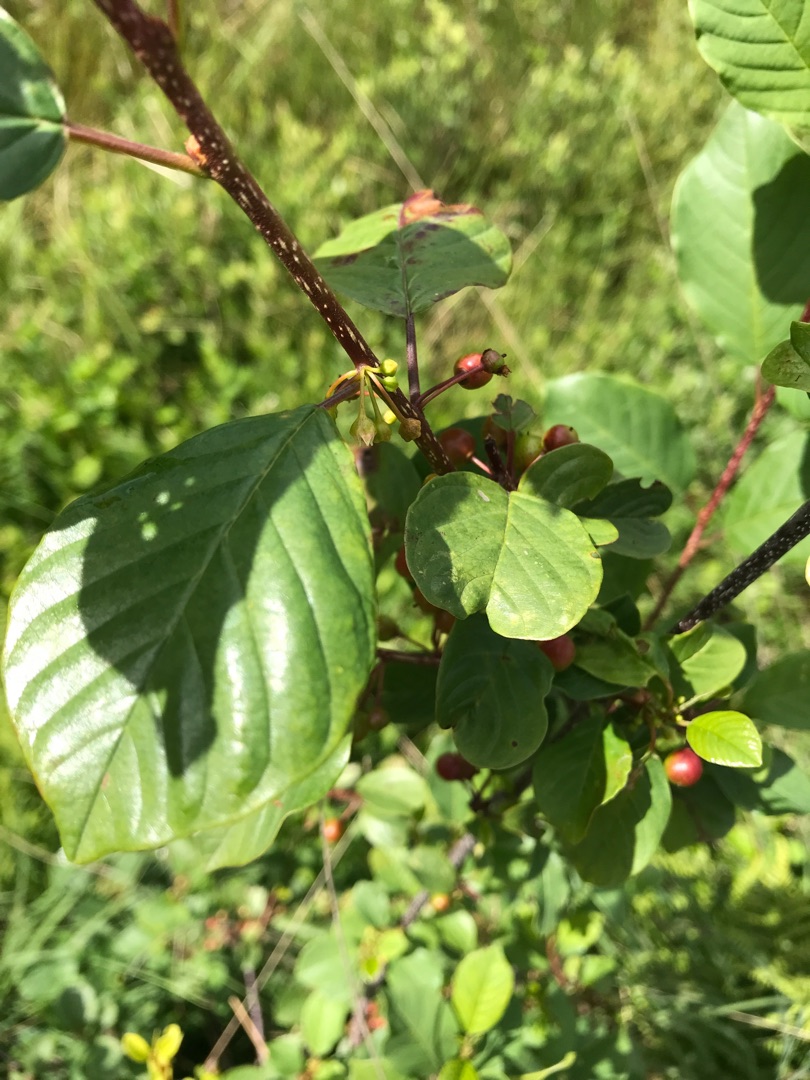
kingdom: Plantae
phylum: Tracheophyta
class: Magnoliopsida
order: Rosales
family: Rhamnaceae
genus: Frangula
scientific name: Frangula alnus
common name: Tørst
